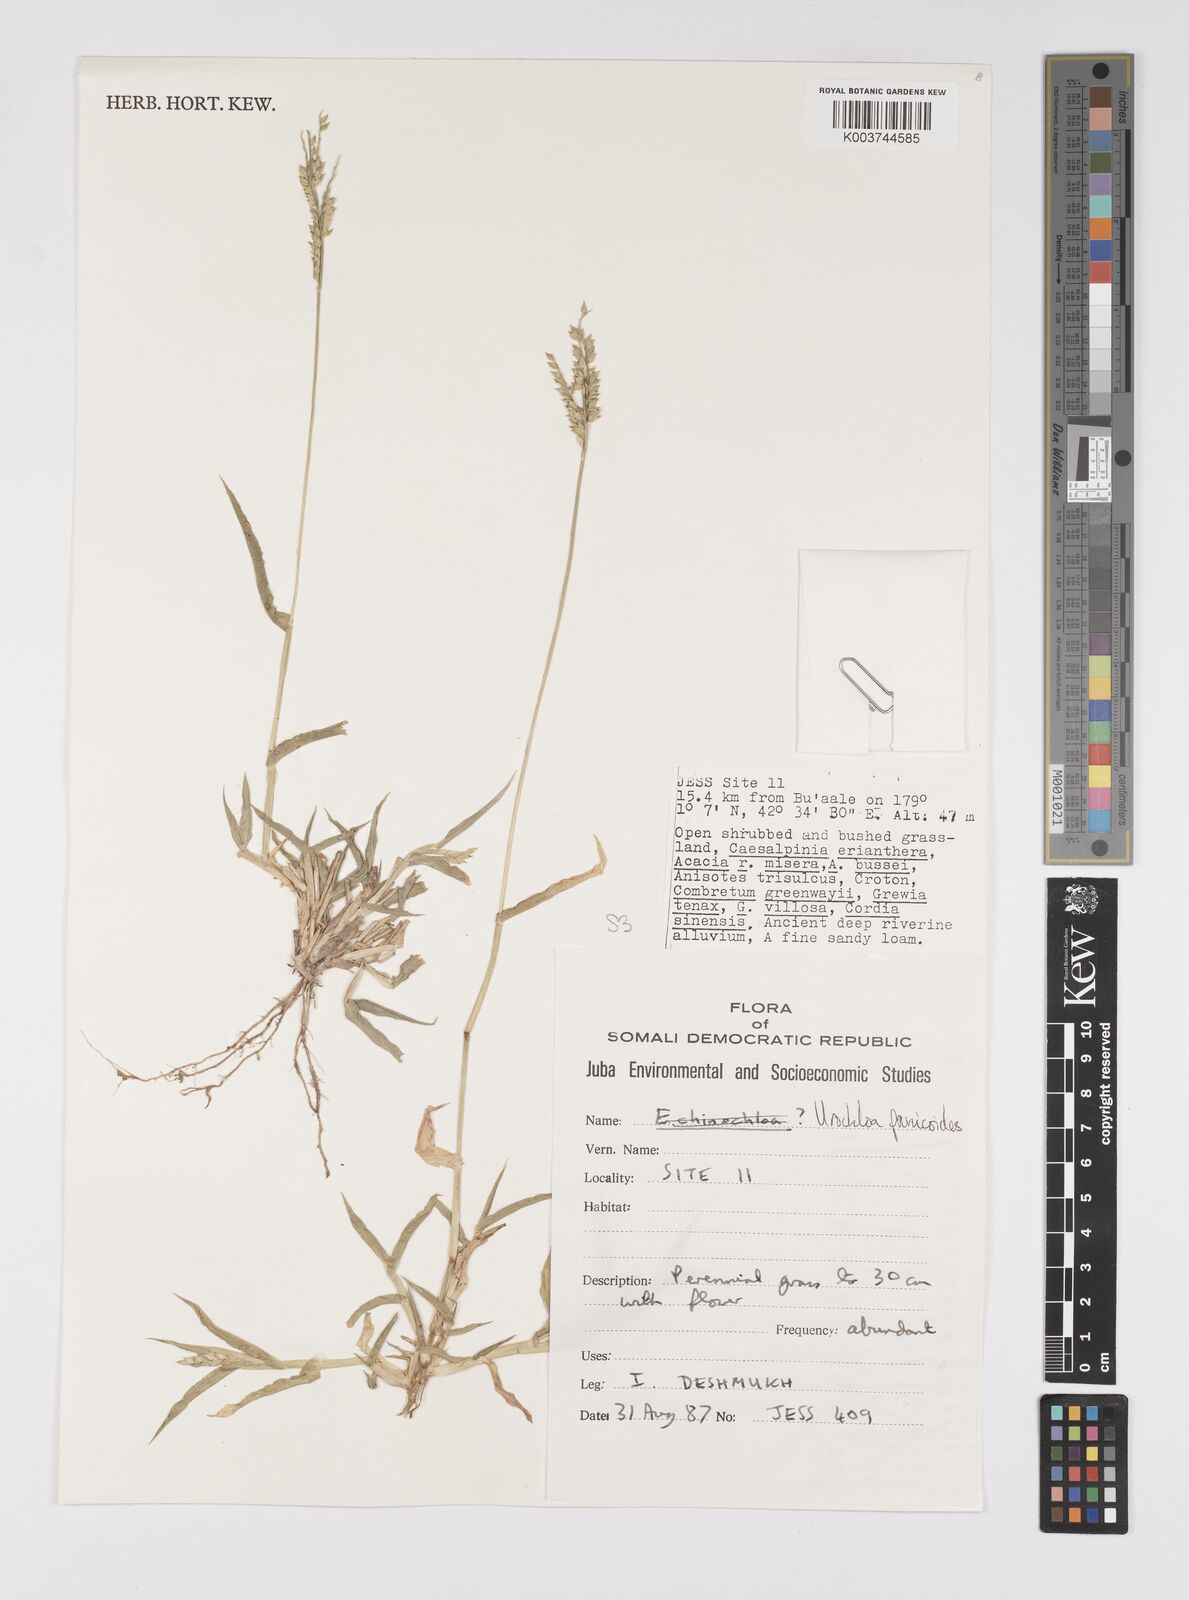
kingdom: Plantae
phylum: Tracheophyta
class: Liliopsida
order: Poales
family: Poaceae
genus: Urochloa
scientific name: Urochloa panicoides
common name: Sharp-flowered signal-grass
